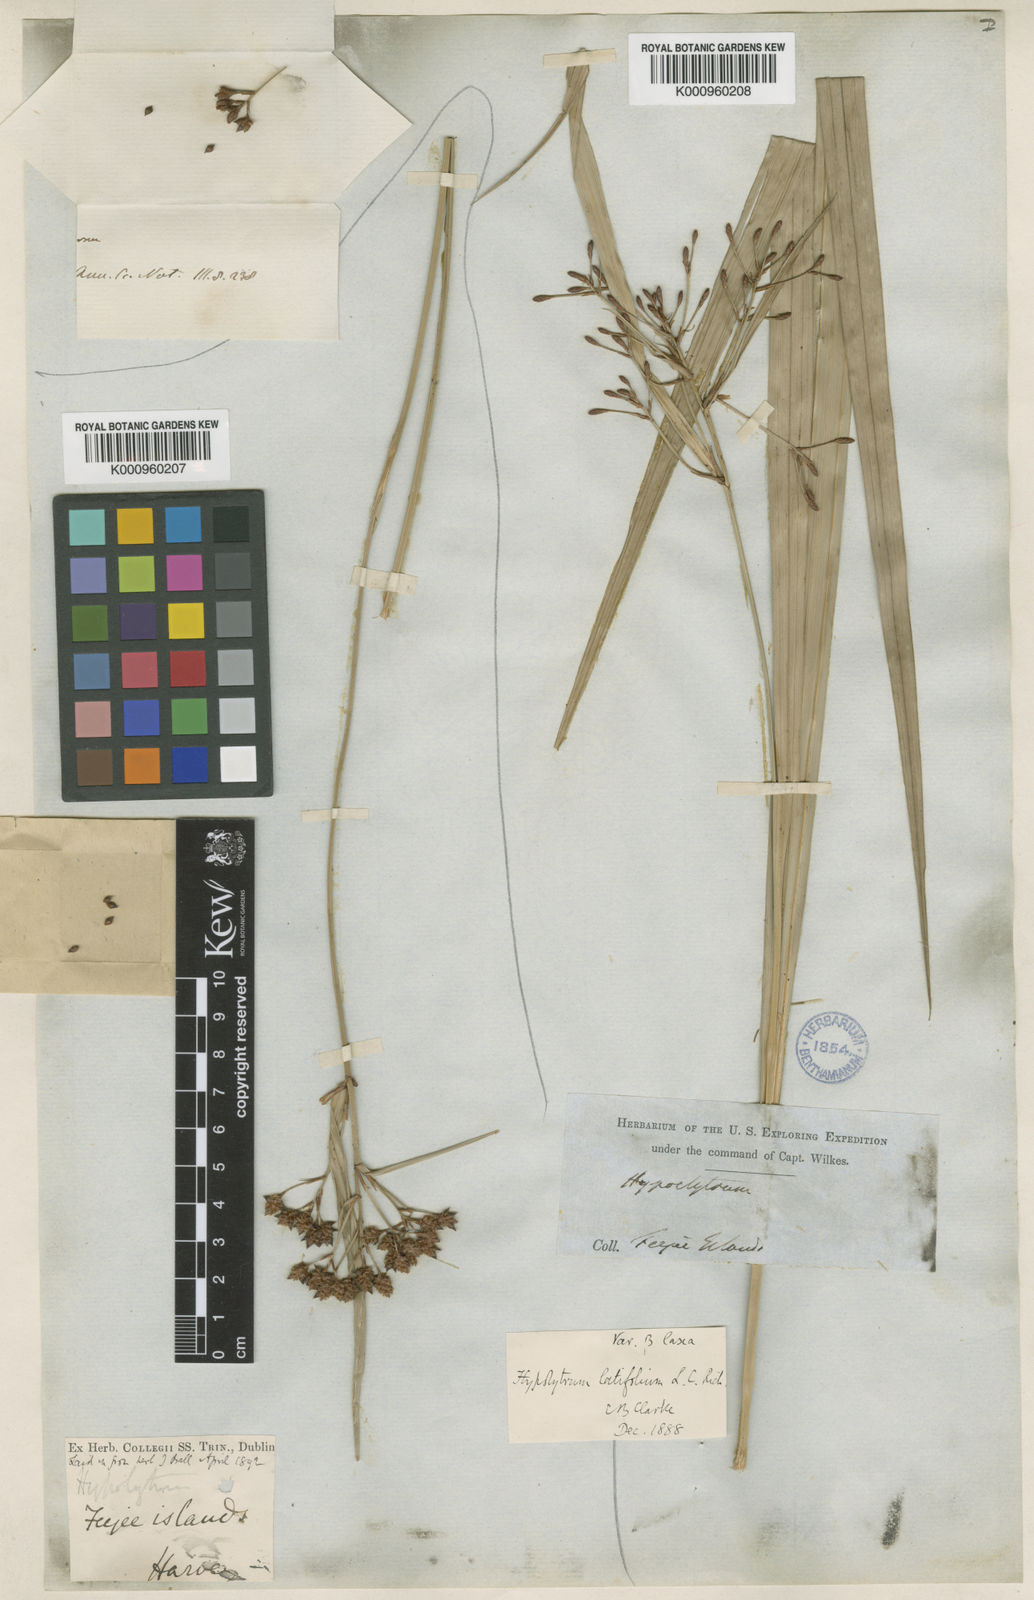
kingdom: Plantae
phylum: Tracheophyta
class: Liliopsida
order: Poales
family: Cyperaceae
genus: Hypolytrum
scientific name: Hypolytrum nemorum
